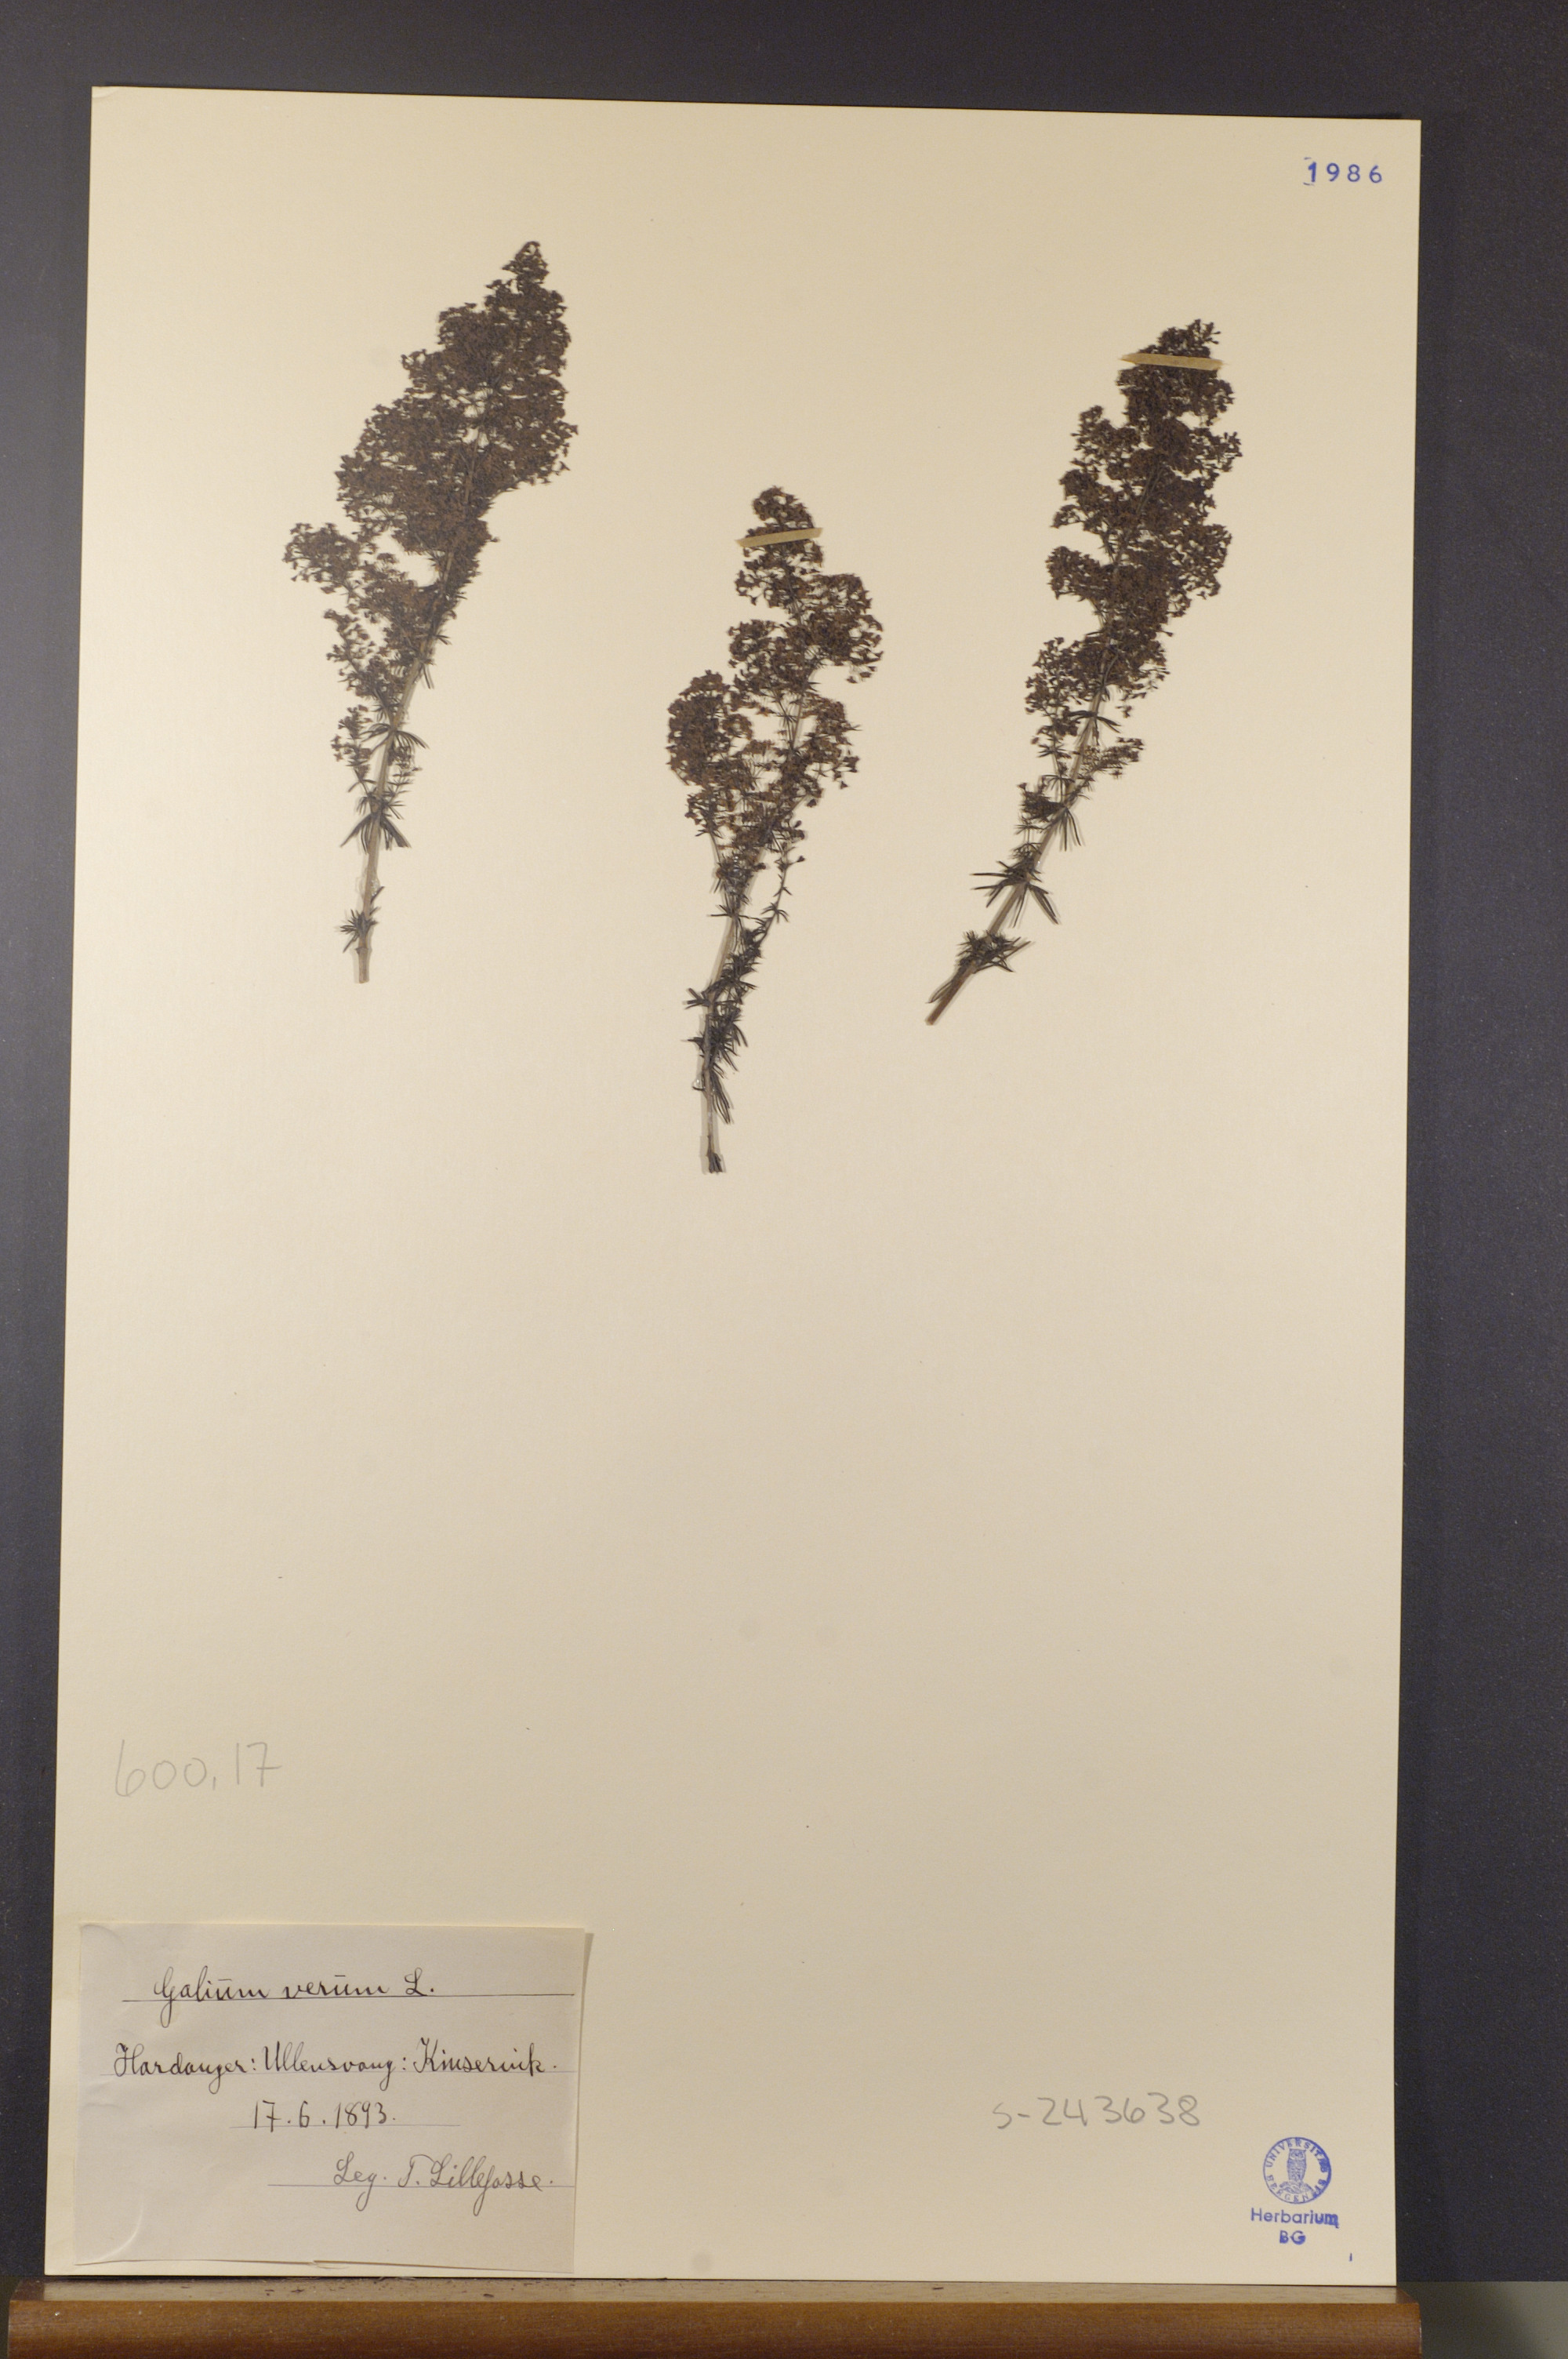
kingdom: Plantae
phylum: Tracheophyta
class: Magnoliopsida
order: Gentianales
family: Rubiaceae
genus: Galium
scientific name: Galium verum
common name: Lady's bedstraw
